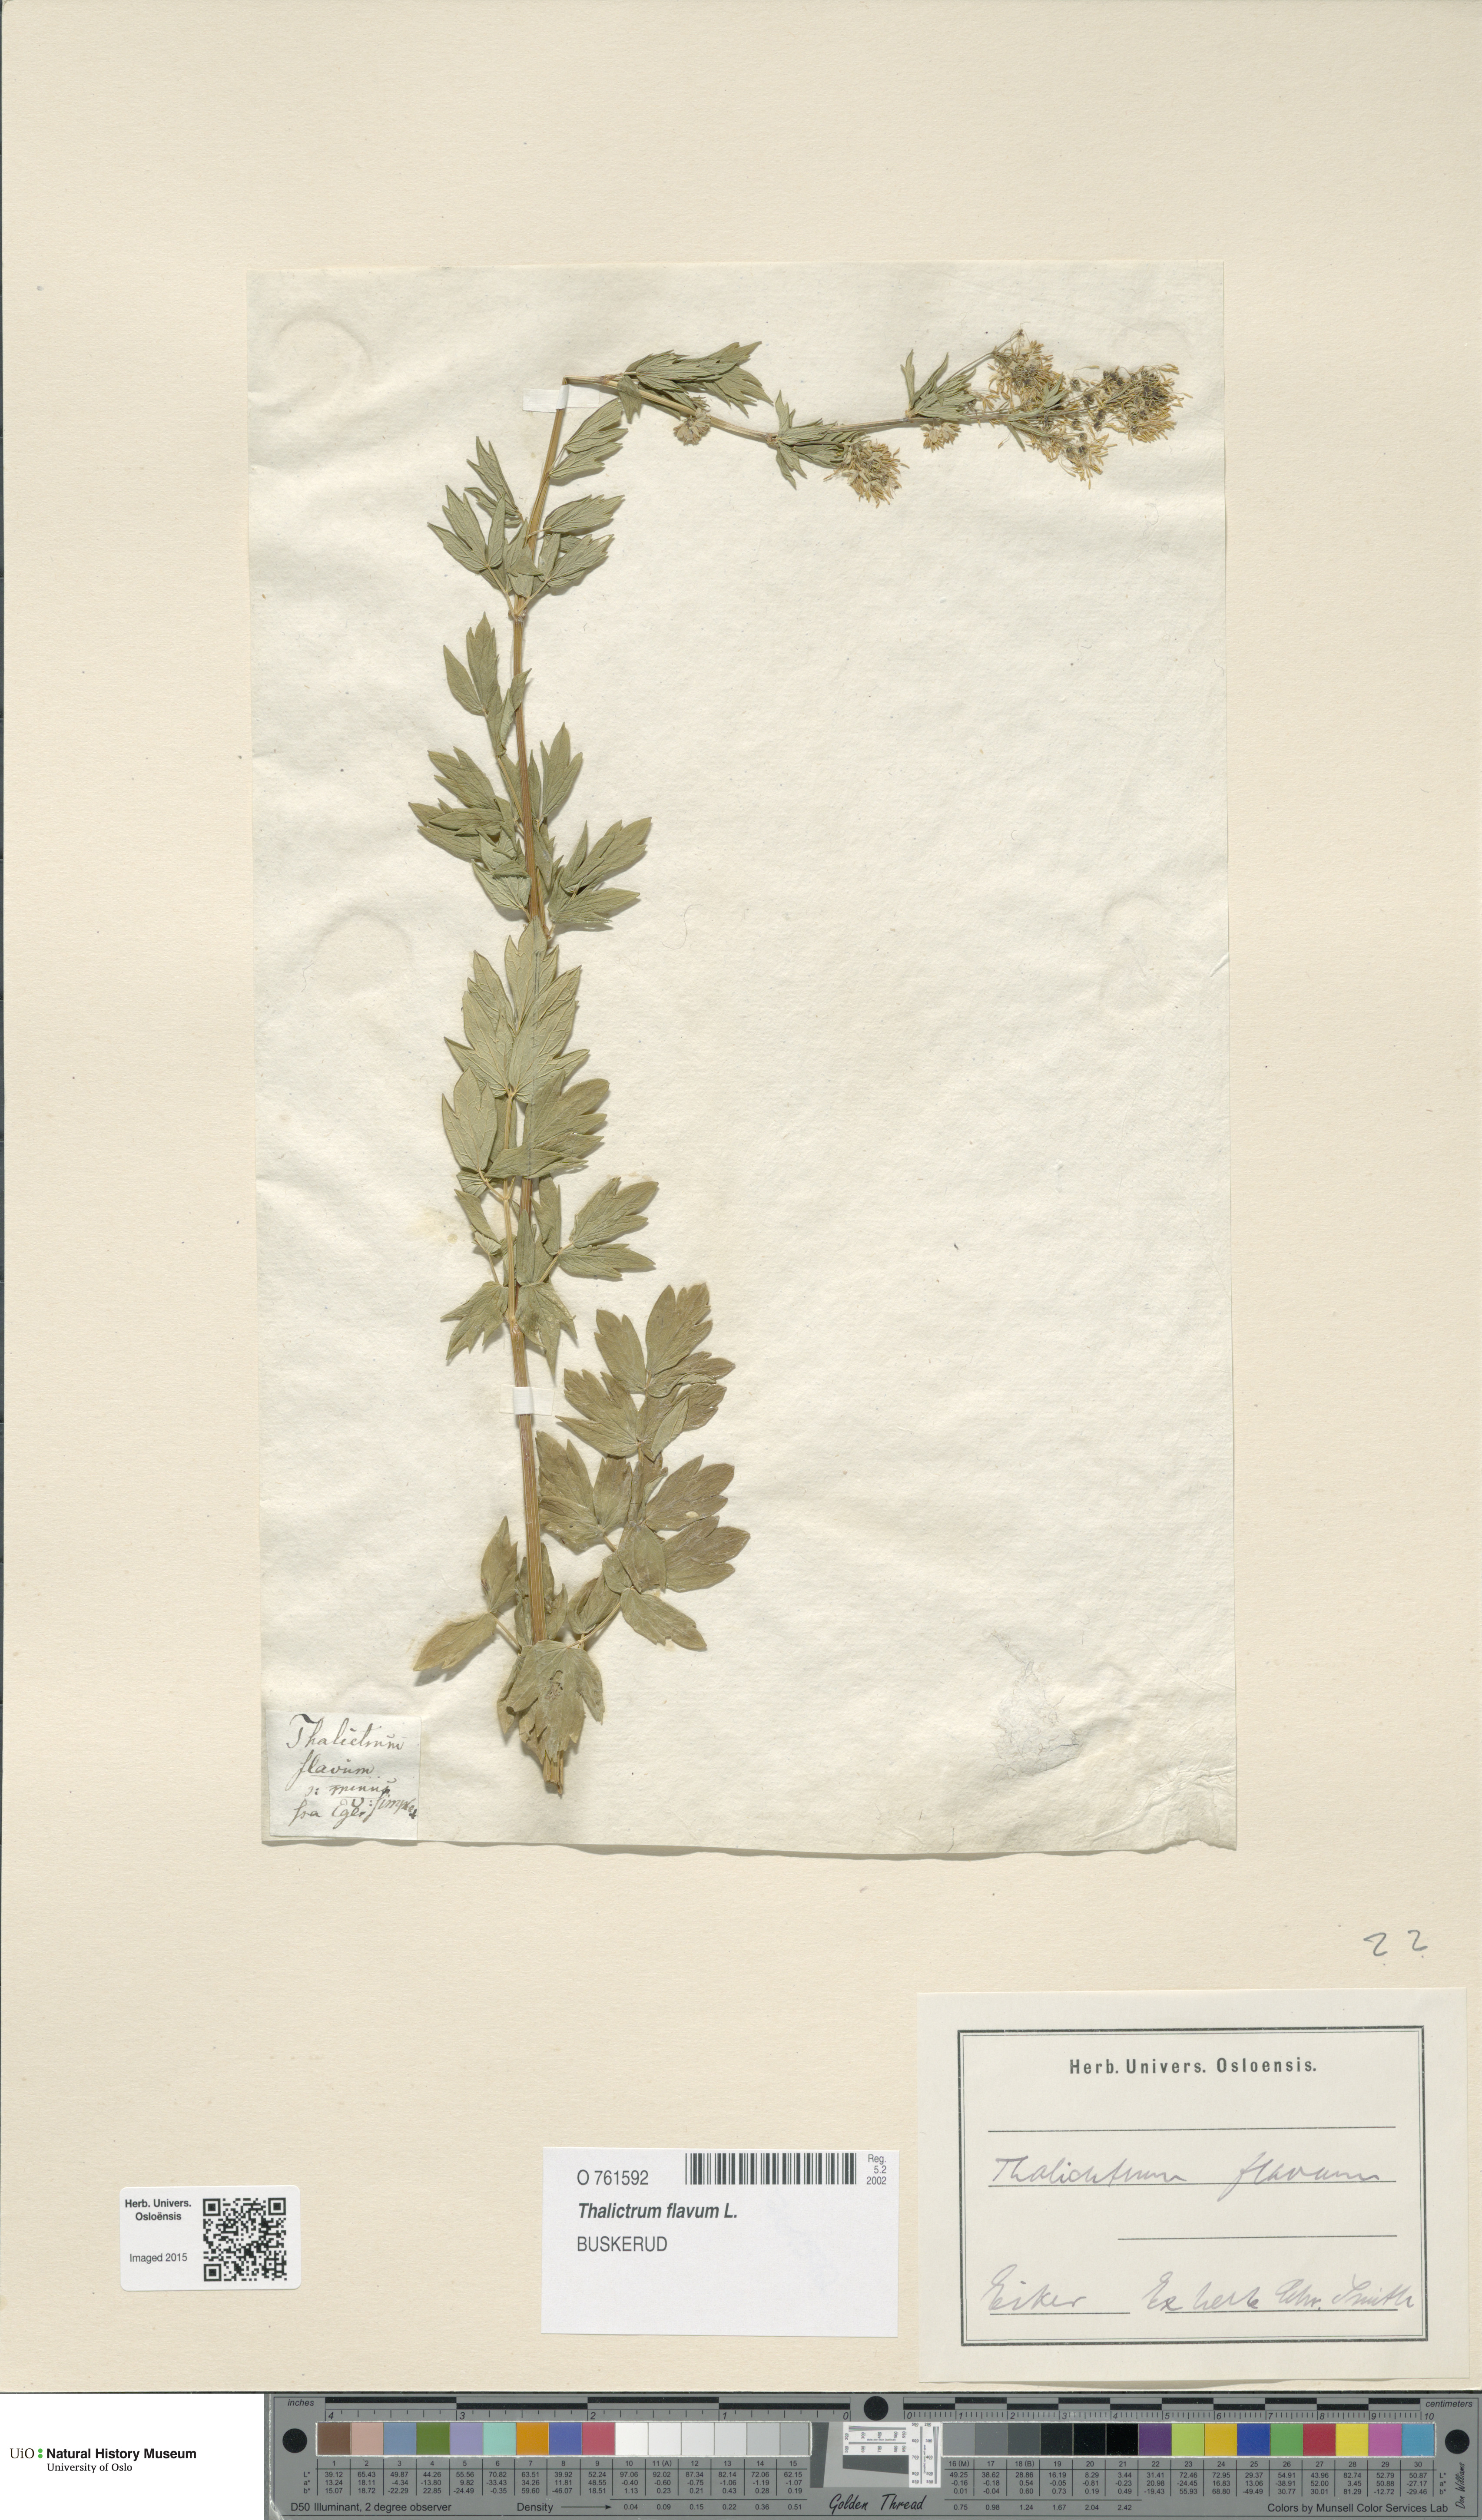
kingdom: Plantae
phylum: Tracheophyta
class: Magnoliopsida
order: Ranunculales
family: Ranunculaceae
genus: Thalictrum
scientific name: Thalictrum flavum
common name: Common meadow-rue
